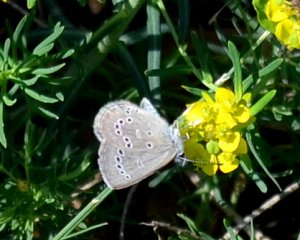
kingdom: Animalia
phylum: Arthropoda
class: Insecta
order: Lepidoptera
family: Lycaenidae
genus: Glaucopsyche
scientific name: Glaucopsyche lygdamus
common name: Silvery Blue
